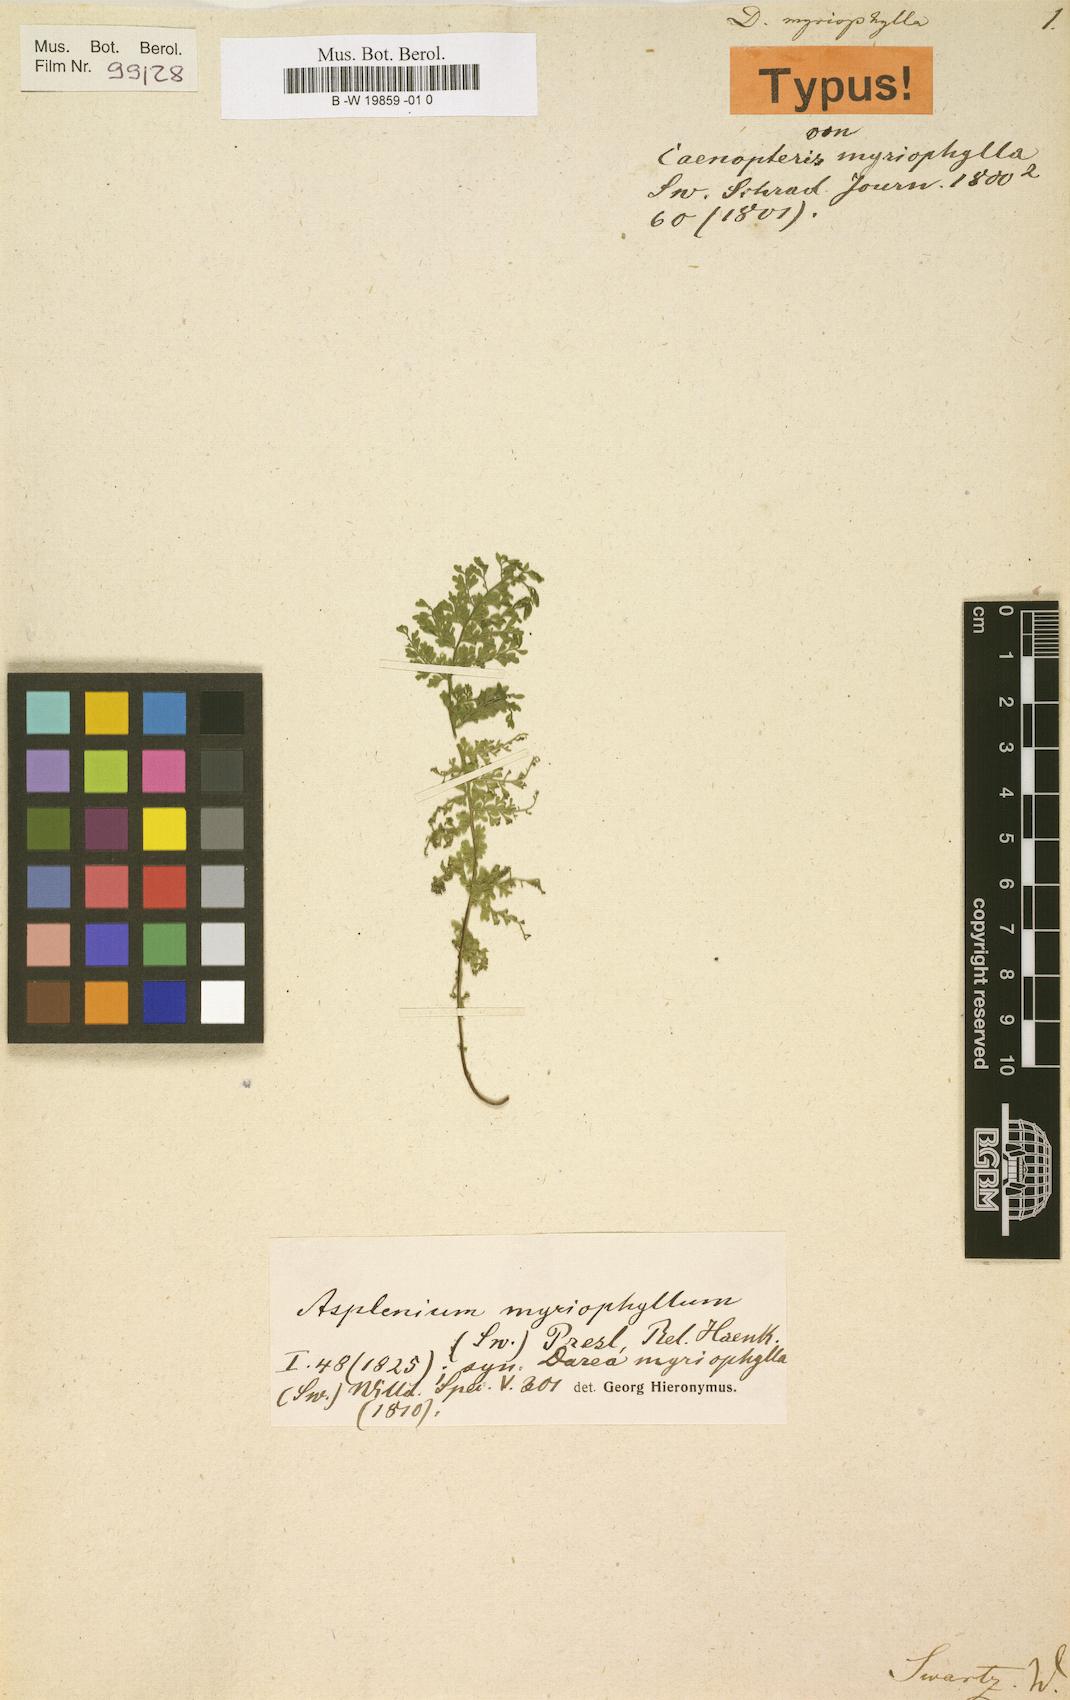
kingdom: Plantae
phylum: Tracheophyta
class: Polypodiopsida
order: Polypodiales
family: Aspleniaceae
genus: Asplenium
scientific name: Asplenium myriophyllum
